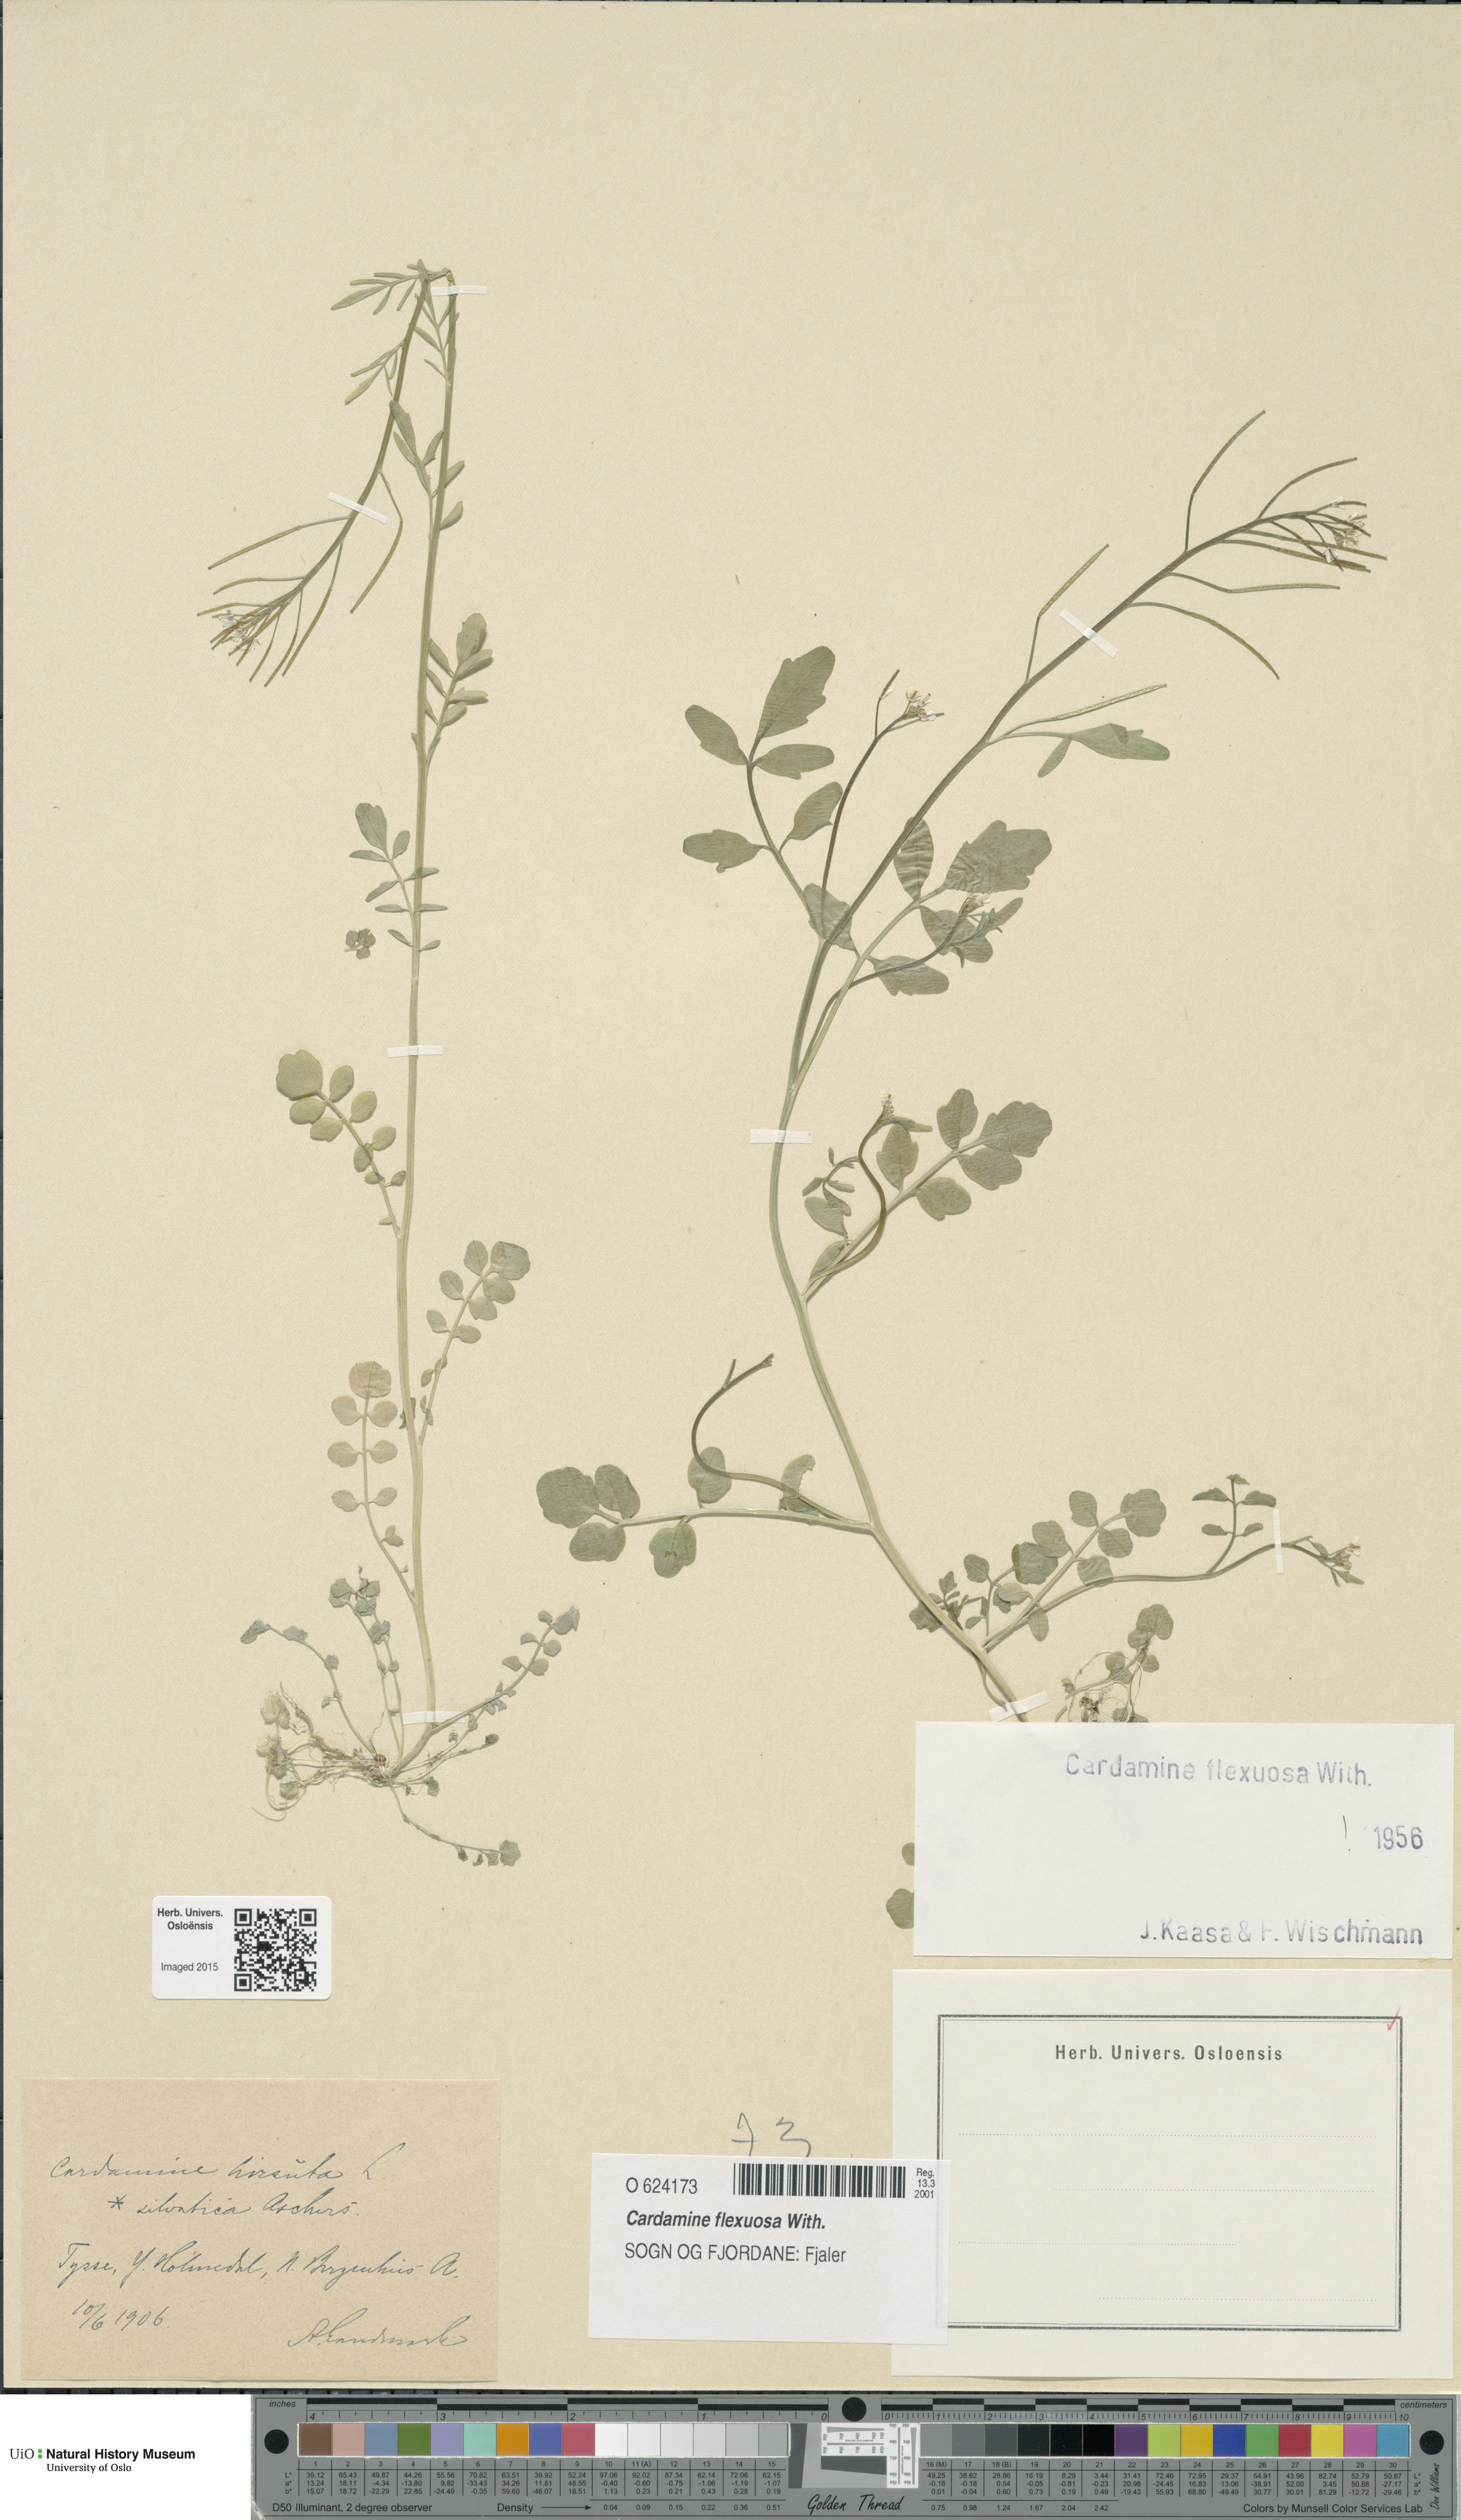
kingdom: Plantae
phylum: Tracheophyta
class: Magnoliopsida
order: Brassicales
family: Brassicaceae
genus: Cardamine
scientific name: Cardamine flexuosa
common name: Woodland bittercress
